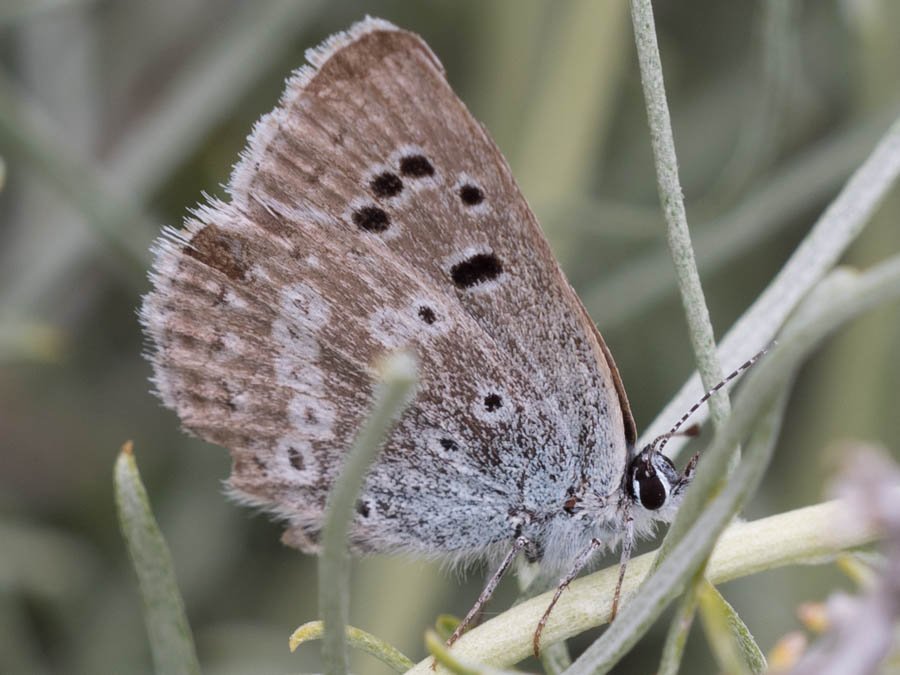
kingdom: Animalia
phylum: Arthropoda
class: Insecta
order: Lepidoptera
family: Lycaenidae
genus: Icaricia
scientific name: Icaricia icarioides
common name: Boisduval's Blue
